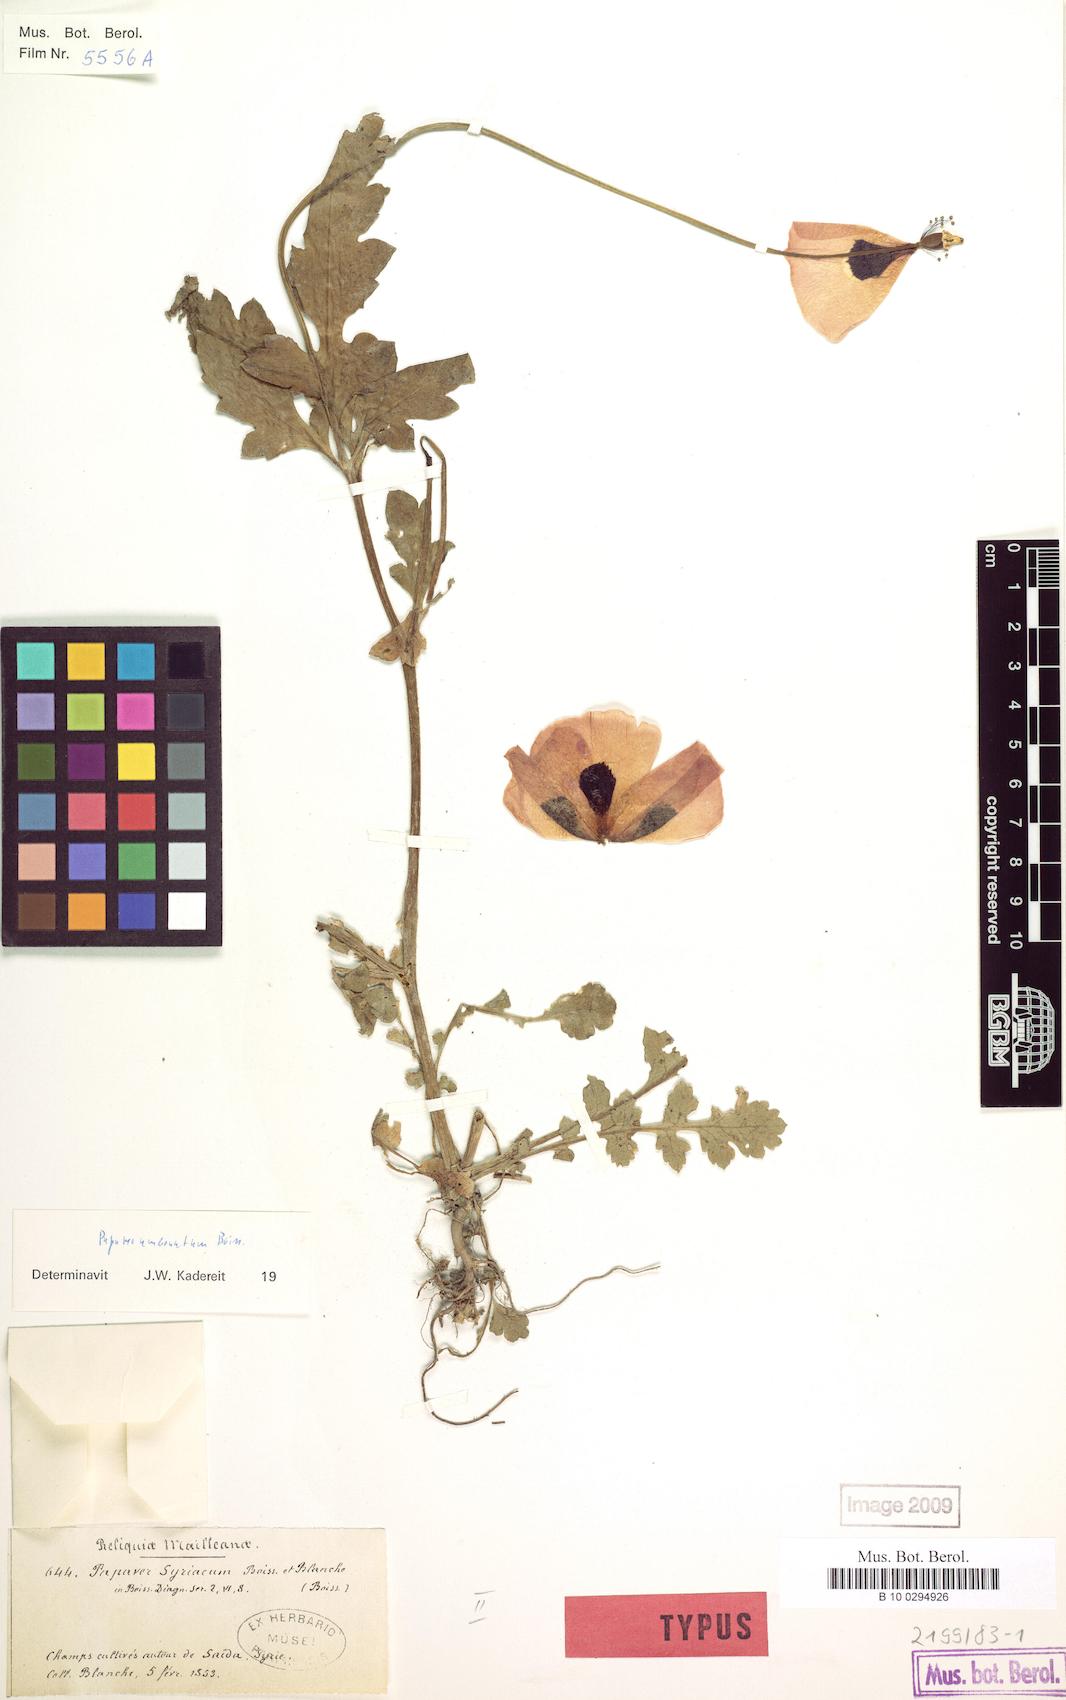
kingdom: Plantae
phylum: Tracheophyta
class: Magnoliopsida
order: Ranunculales
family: Papaveraceae
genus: Papaver
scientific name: Papaver umbonatum
